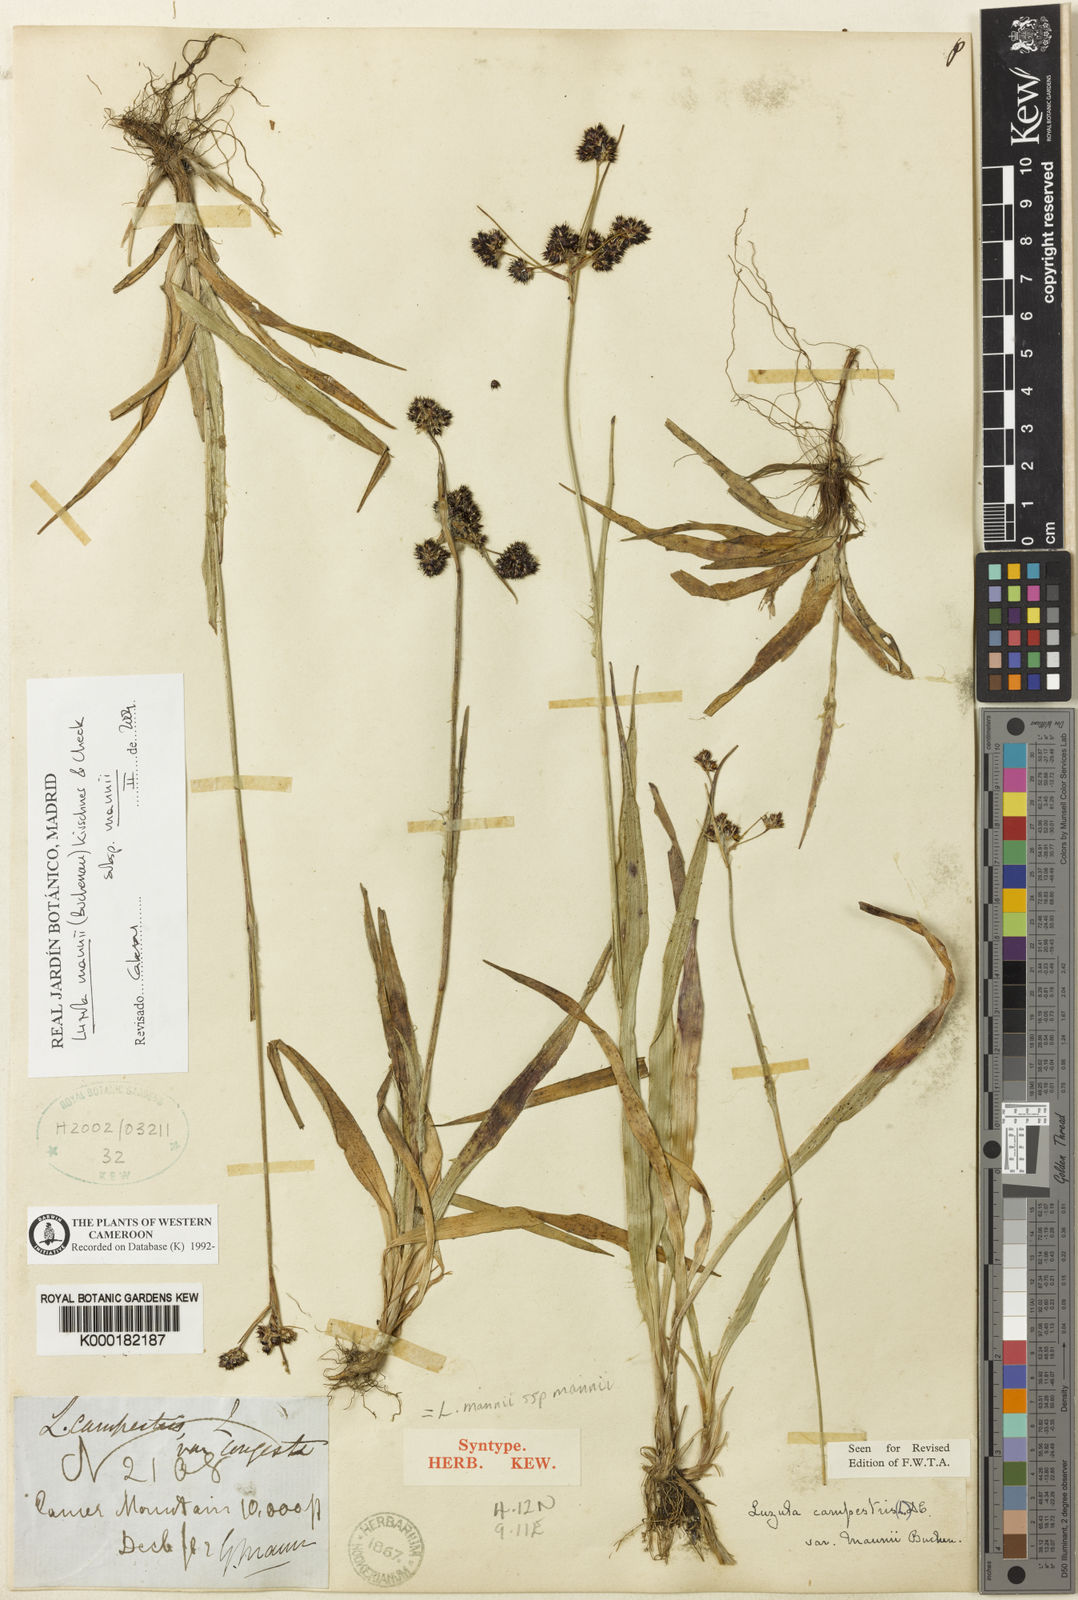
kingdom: Plantae
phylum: Tracheophyta
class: Liliopsida
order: Poales
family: Juncaceae
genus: Luzula
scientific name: Luzula campestris
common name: Field wood-rush
